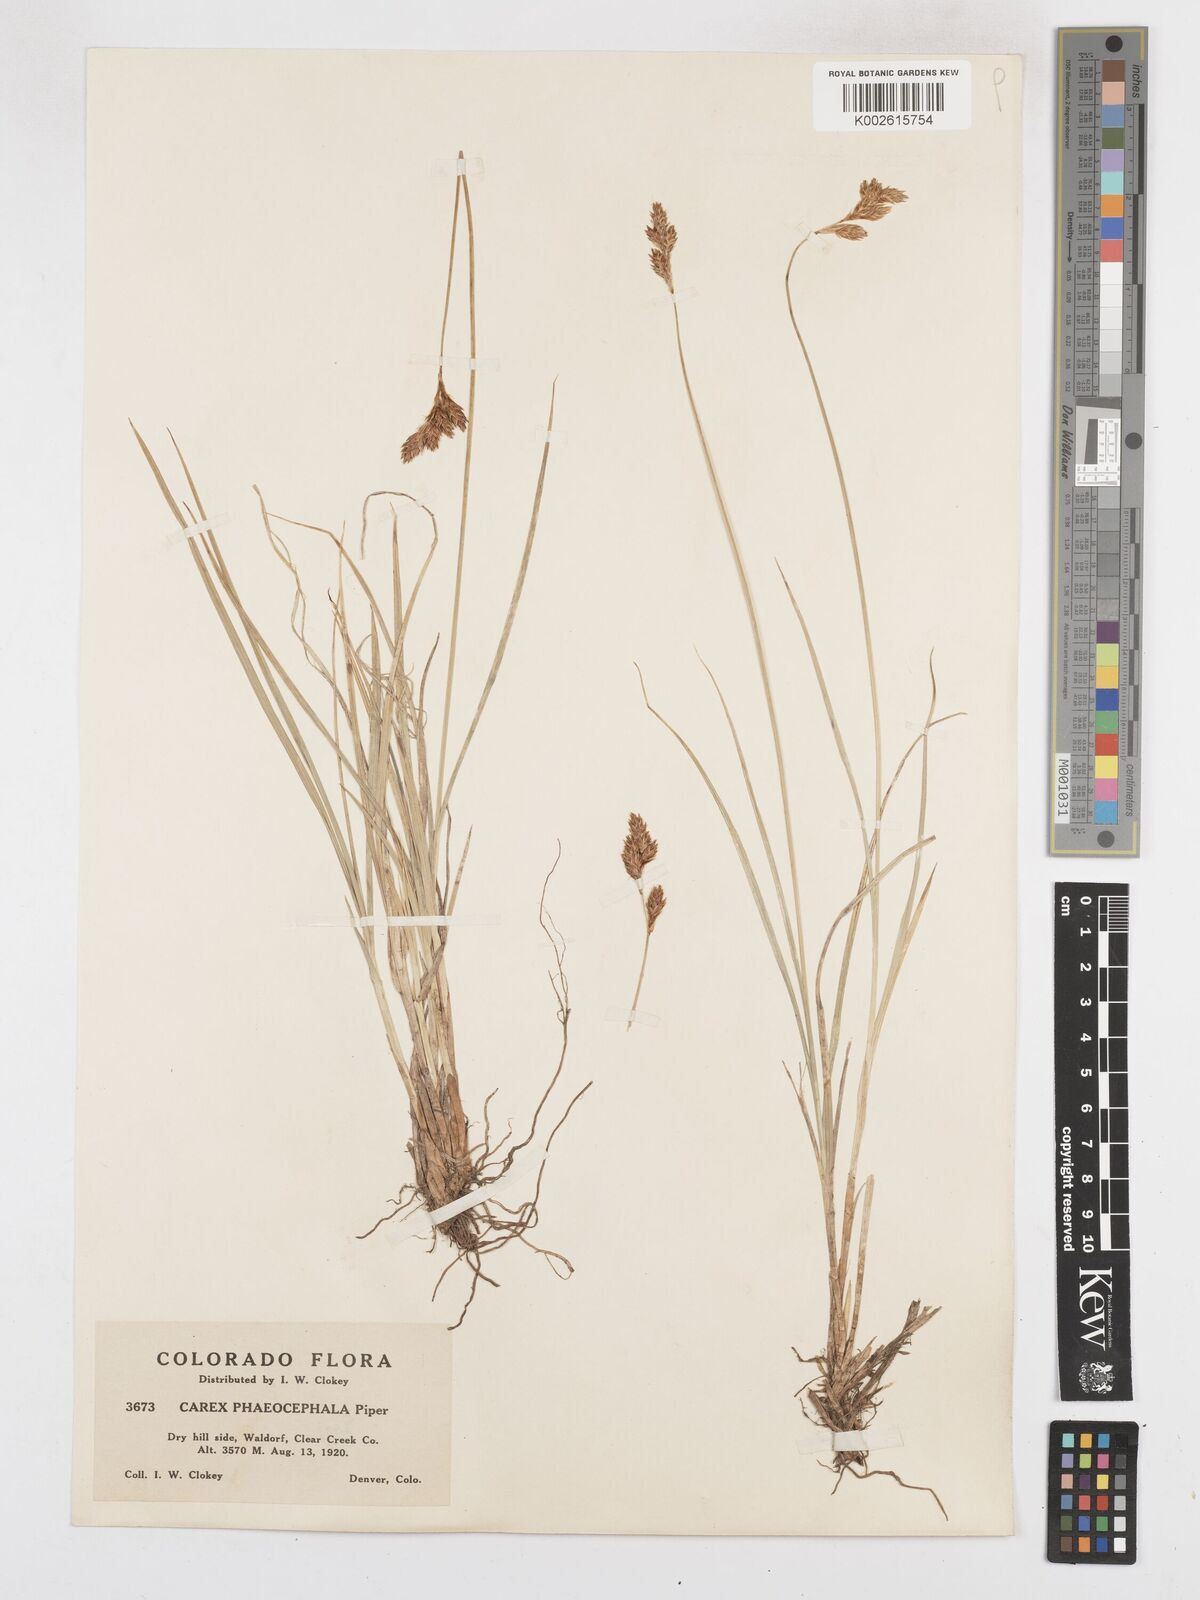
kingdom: Plantae
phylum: Tracheophyta
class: Liliopsida
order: Poales
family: Cyperaceae
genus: Carex
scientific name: Carex phaeocephala
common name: Brown-head sedge
